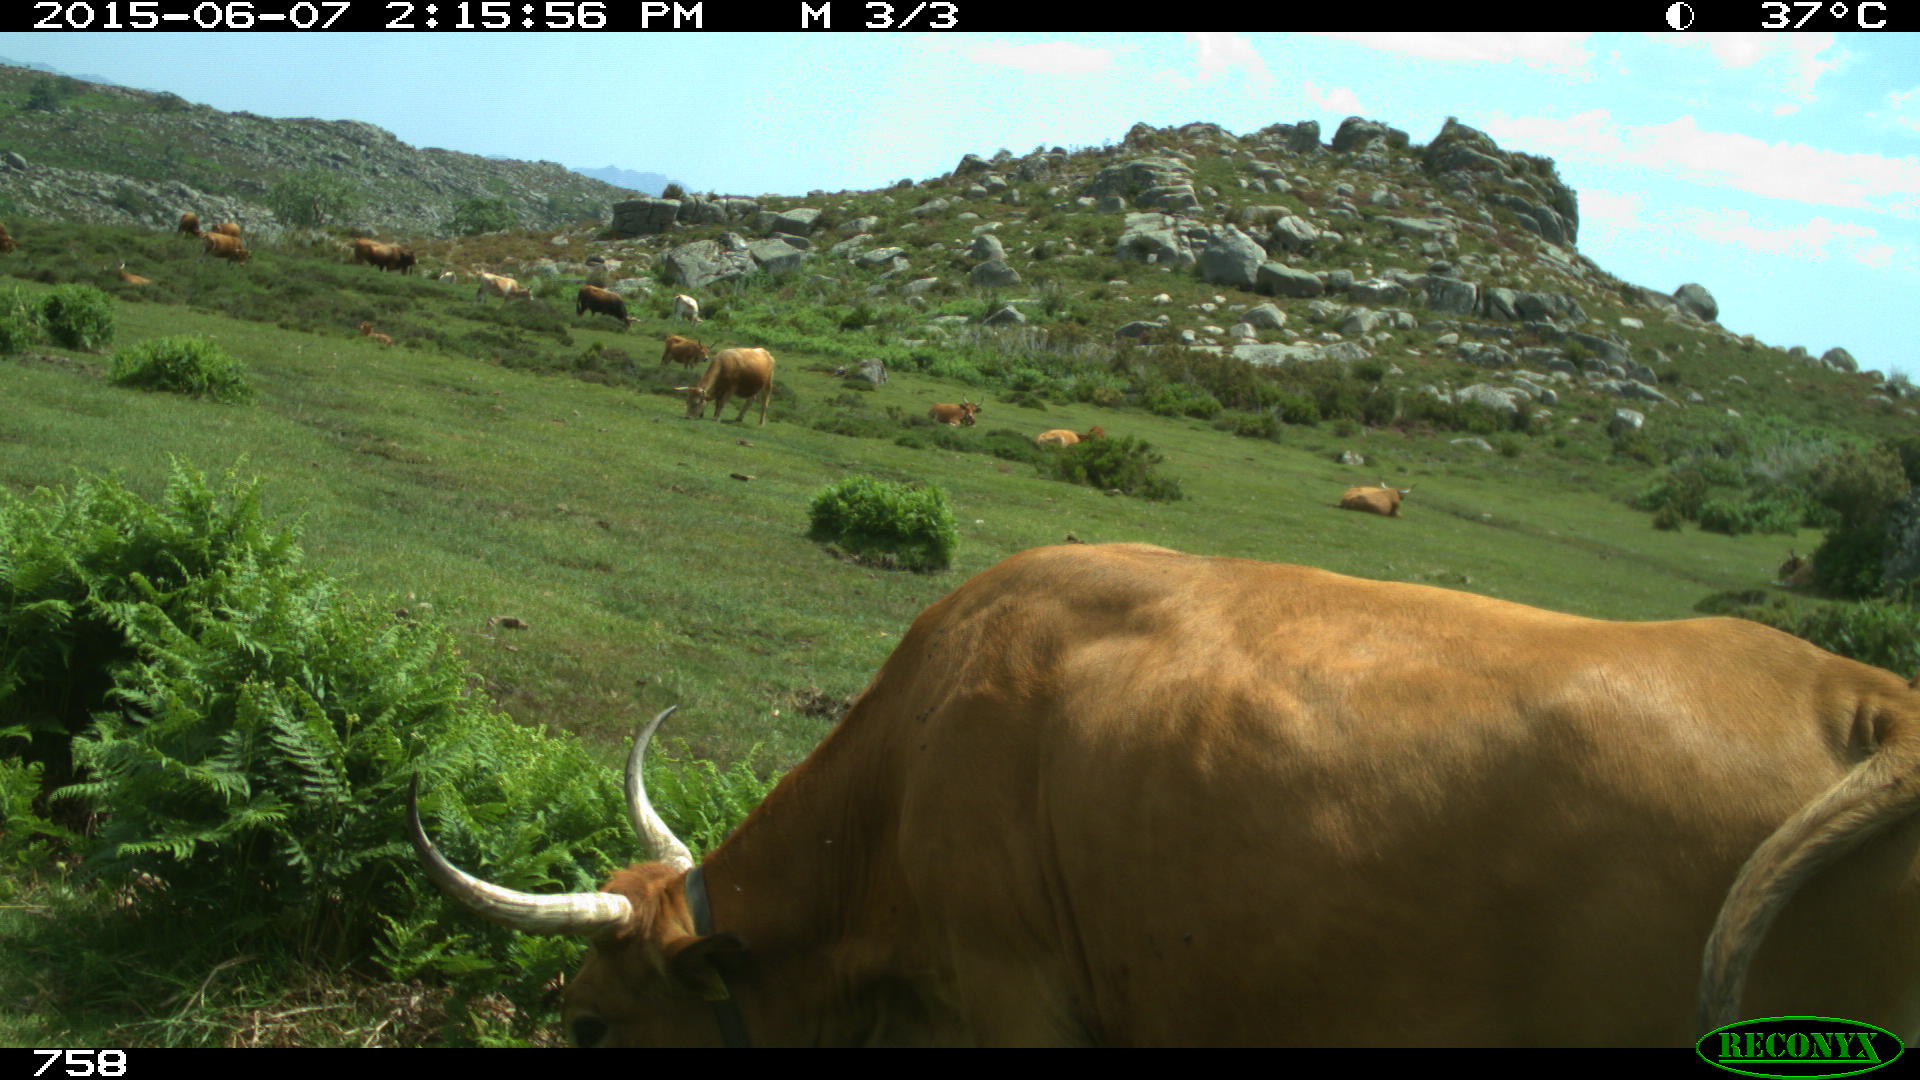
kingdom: Animalia
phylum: Chordata
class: Mammalia
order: Artiodactyla
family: Bovidae
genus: Bos
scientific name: Bos taurus
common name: Domesticated cattle
